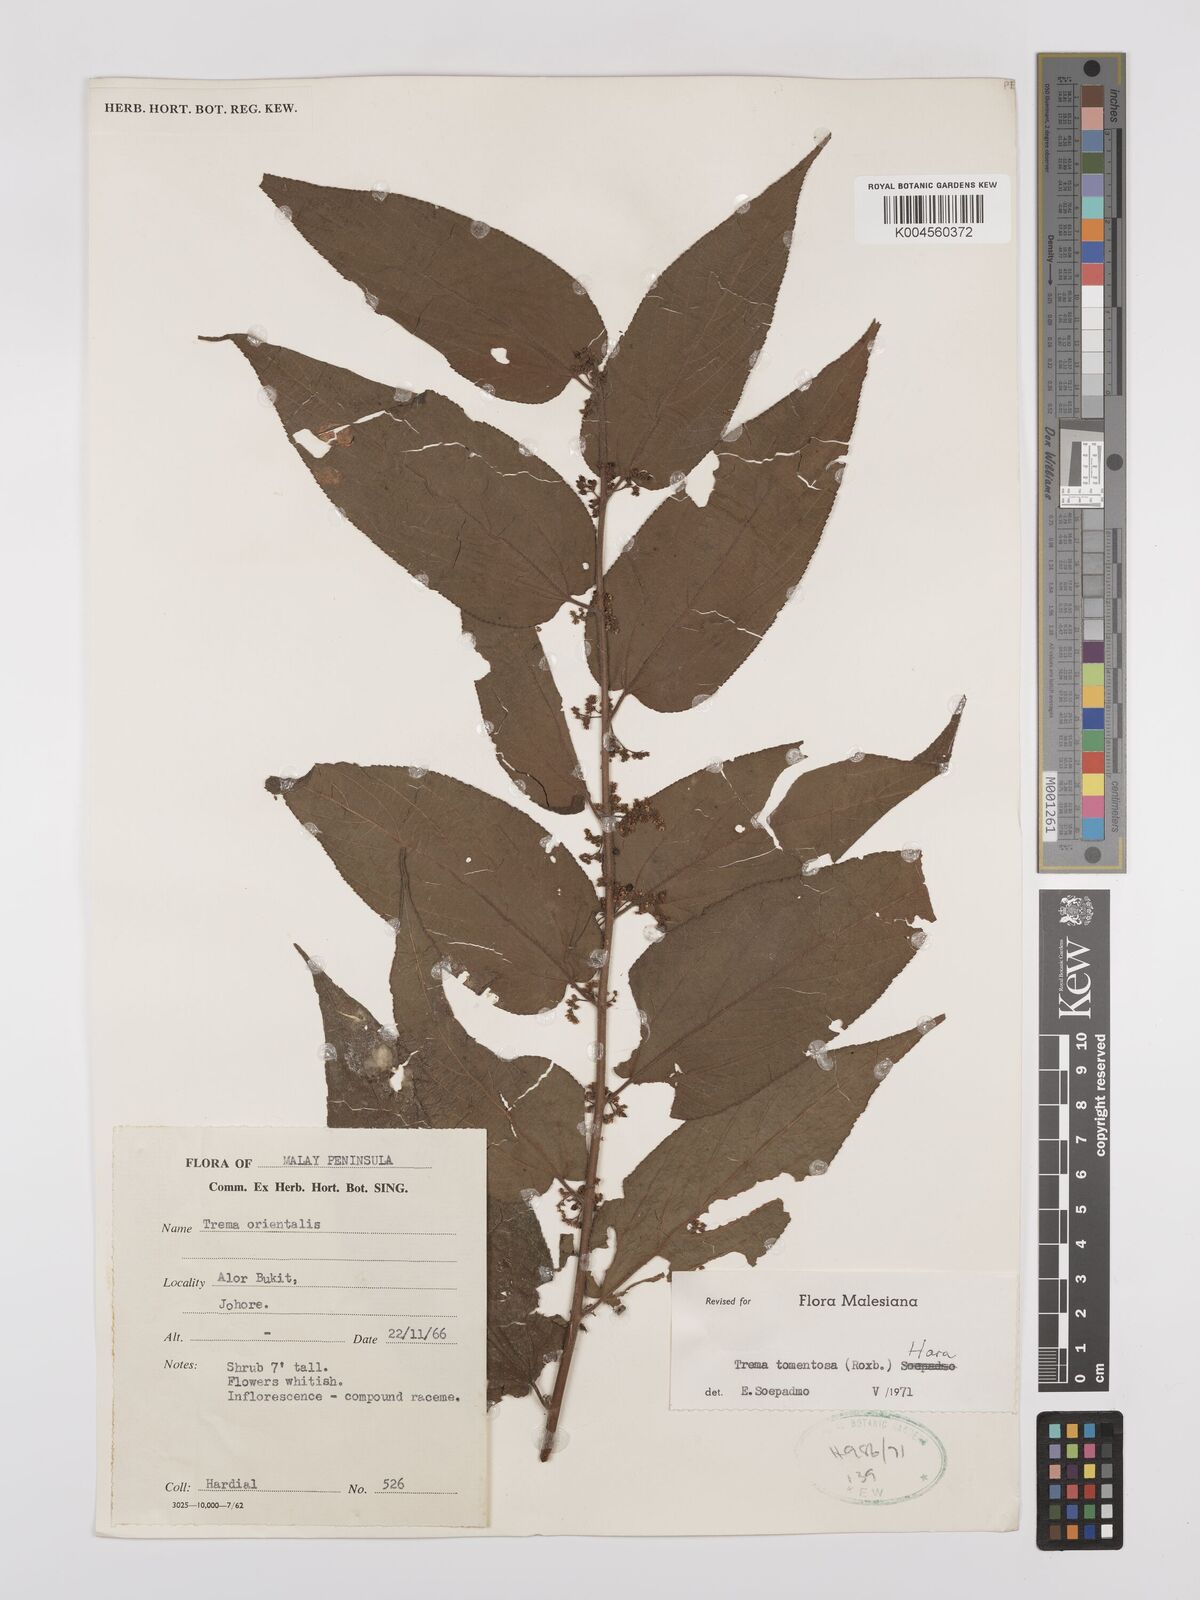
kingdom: Plantae
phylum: Tracheophyta
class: Magnoliopsida
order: Rosales
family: Cannabaceae
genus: Trema
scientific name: Trema tomentosum
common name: Peach-leaf-poisonbush
